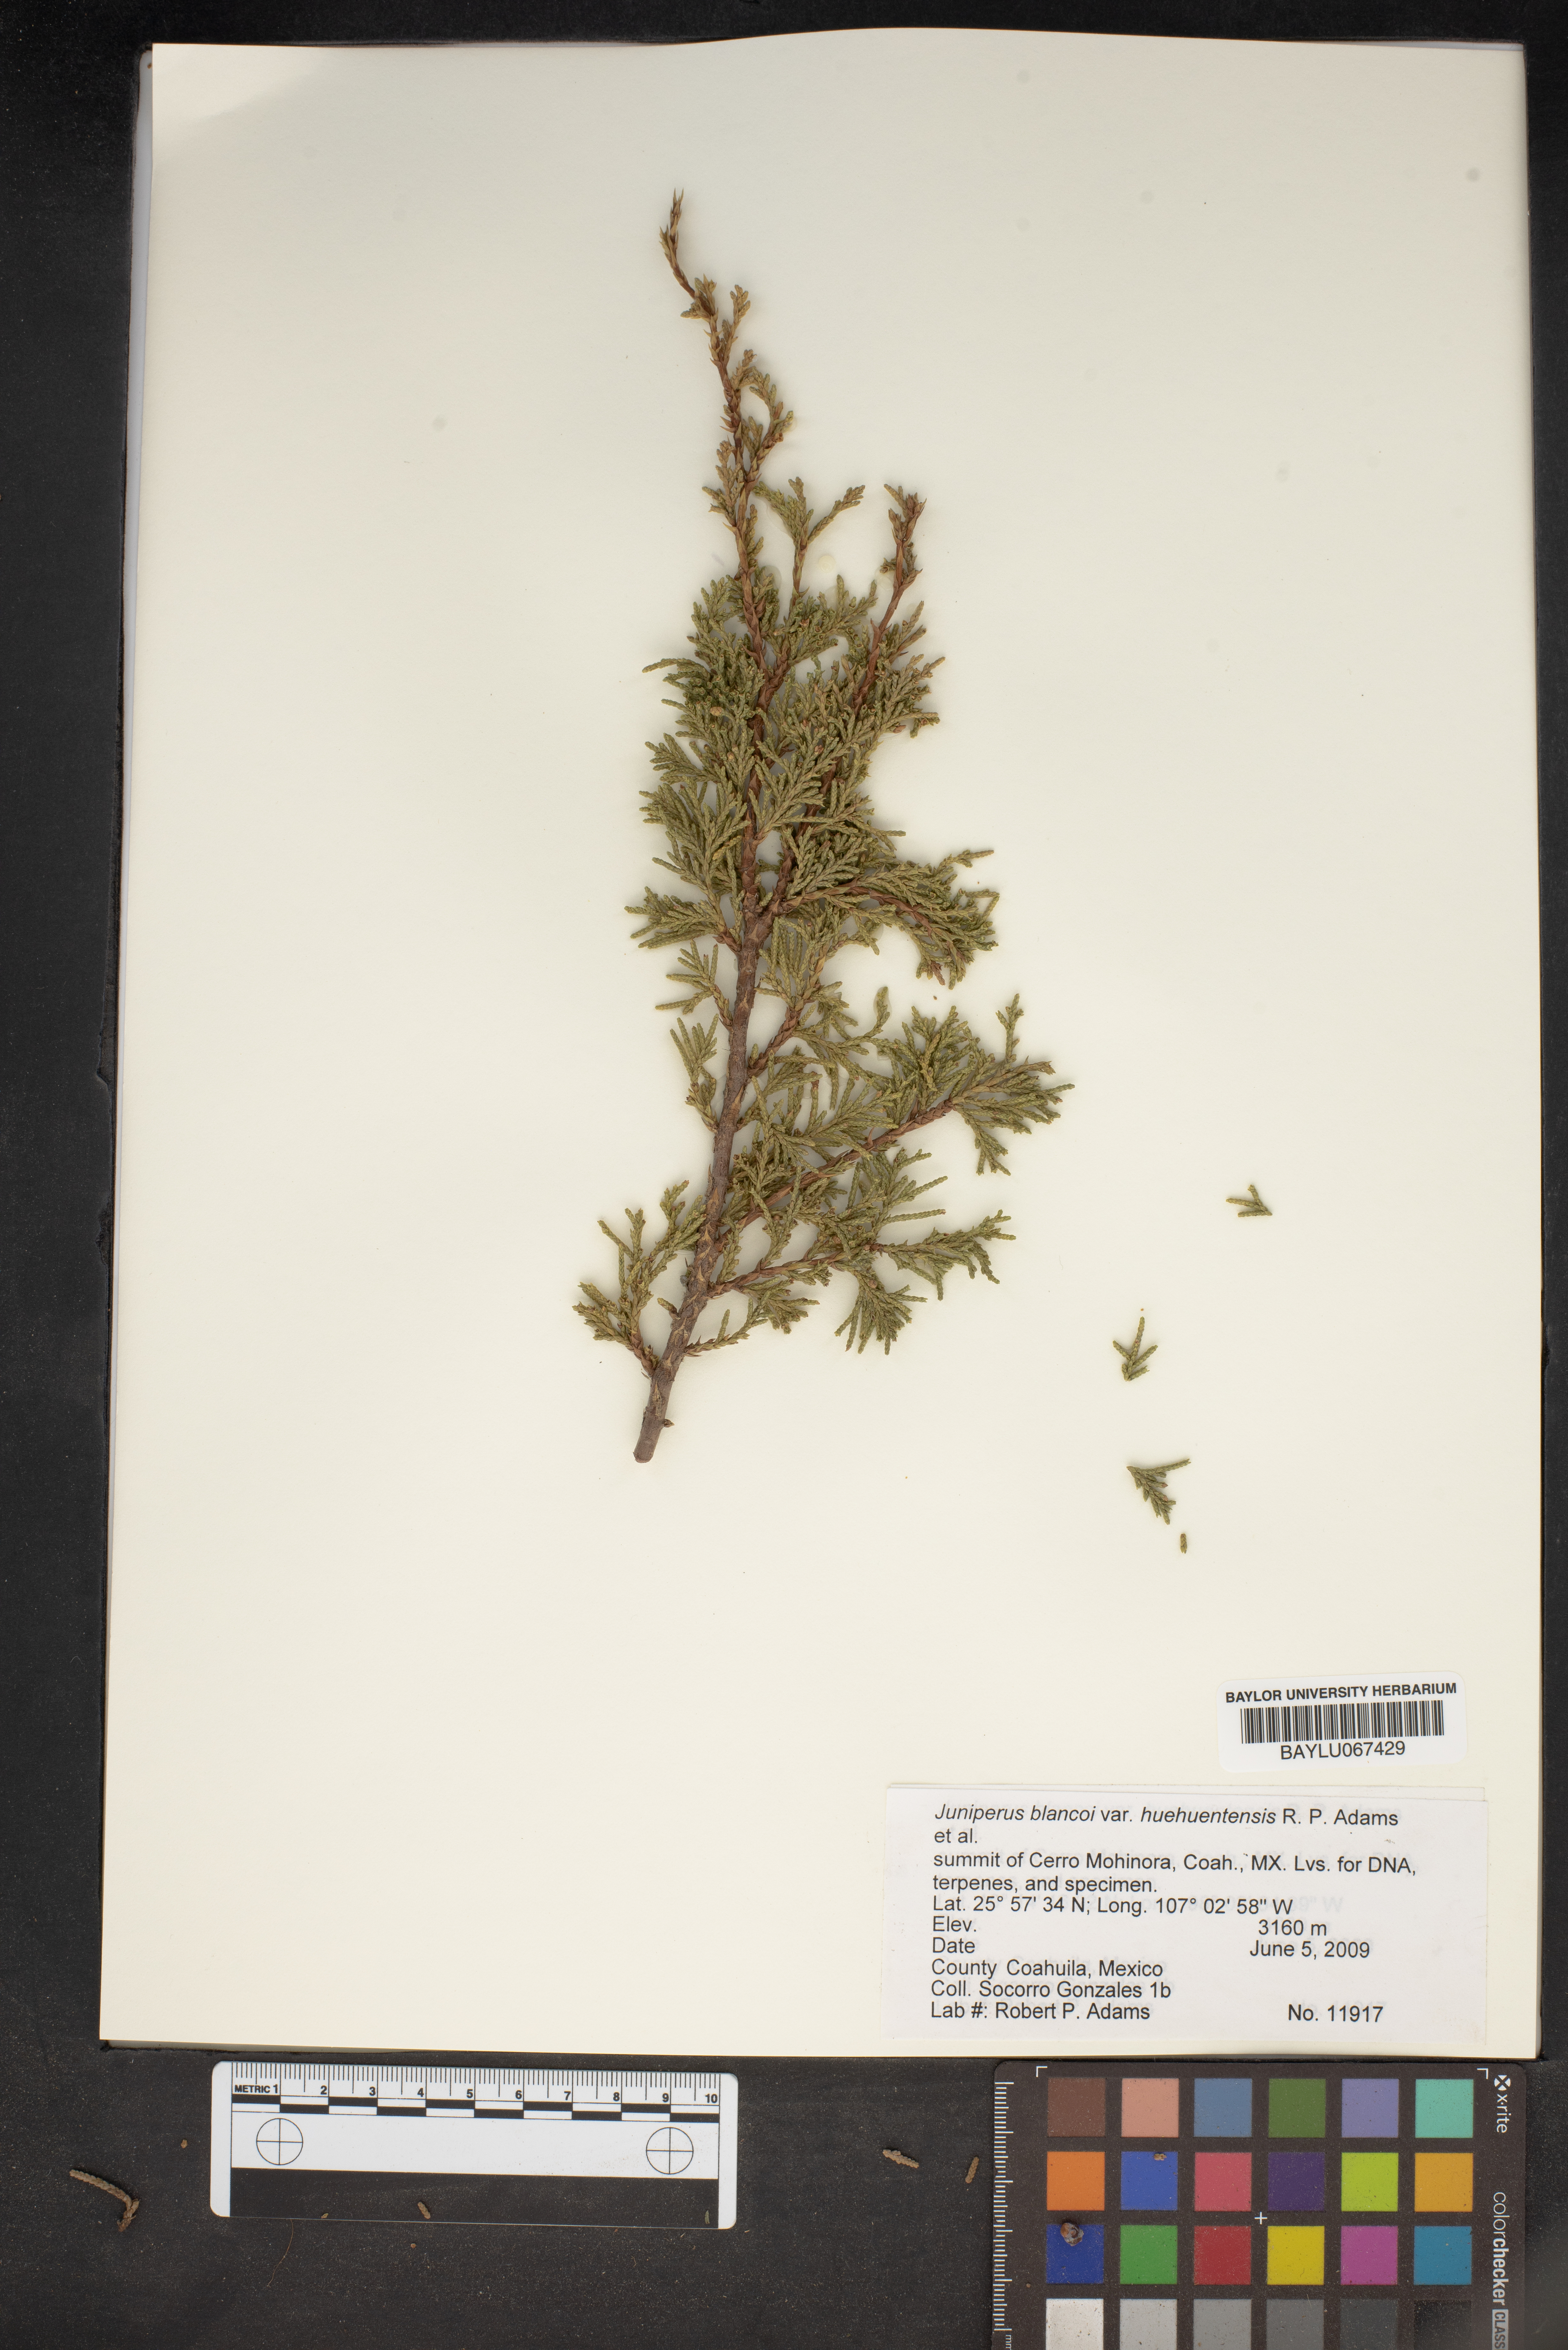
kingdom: Plantae
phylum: Tracheophyta
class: Pinopsida
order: Pinales
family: Cupressaceae
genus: Juniperus
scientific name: Juniperus blancoi
